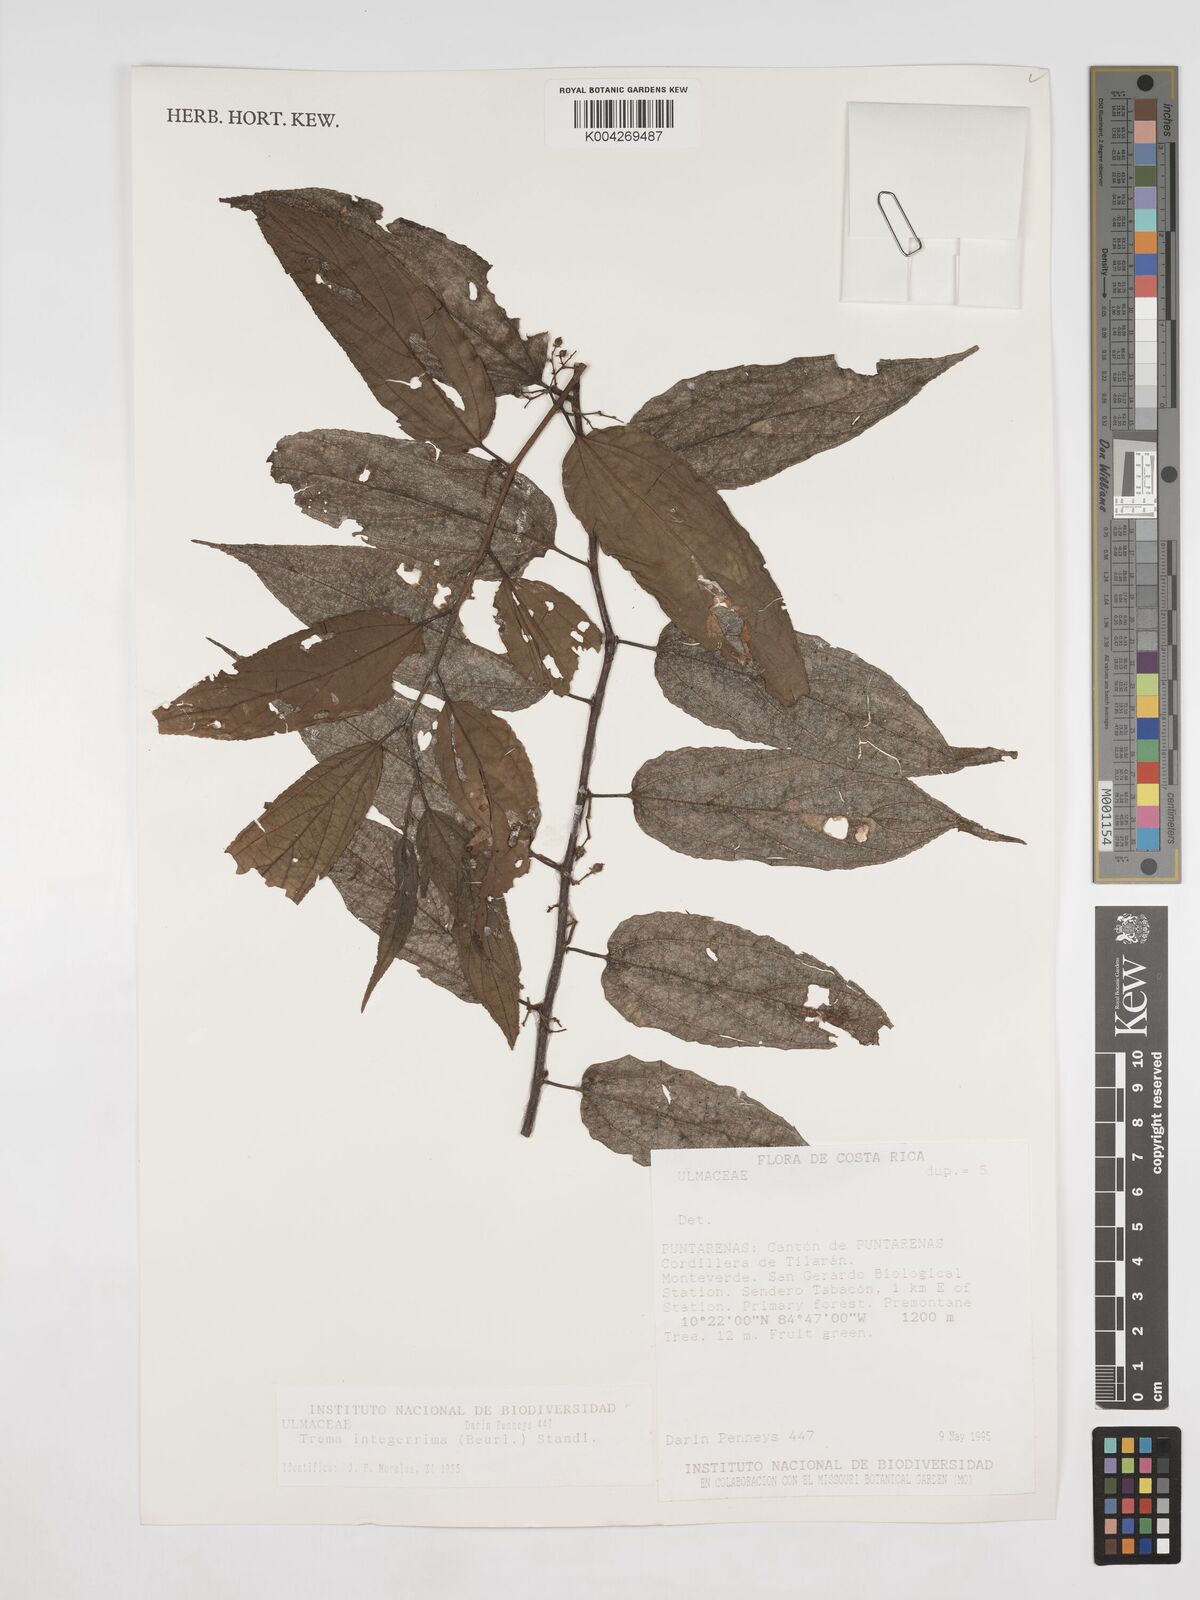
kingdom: Plantae
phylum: Tracheophyta
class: Magnoliopsida
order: Rosales
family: Cannabaceae
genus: Trema
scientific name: Trema integerrimum
